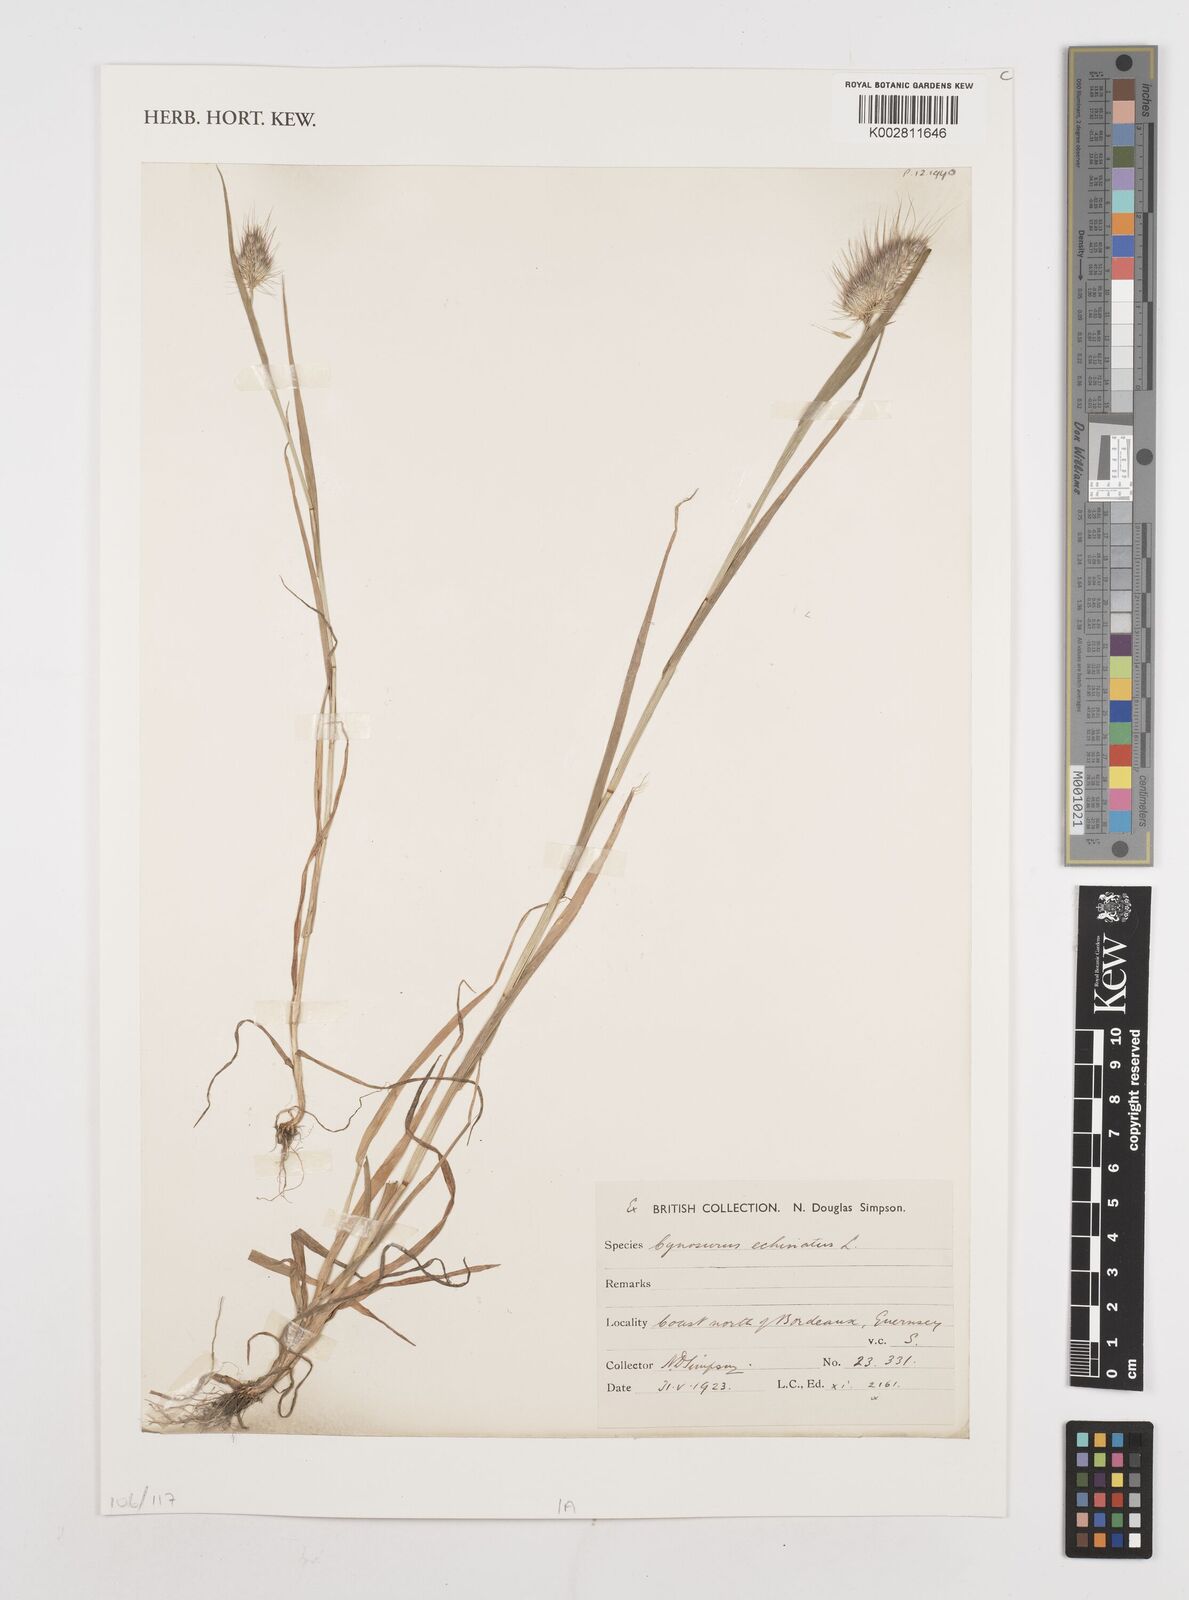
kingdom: Plantae
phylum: Tracheophyta
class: Liliopsida
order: Poales
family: Poaceae
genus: Cynosurus
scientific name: Cynosurus echinatus
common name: Rough dog's-tail
